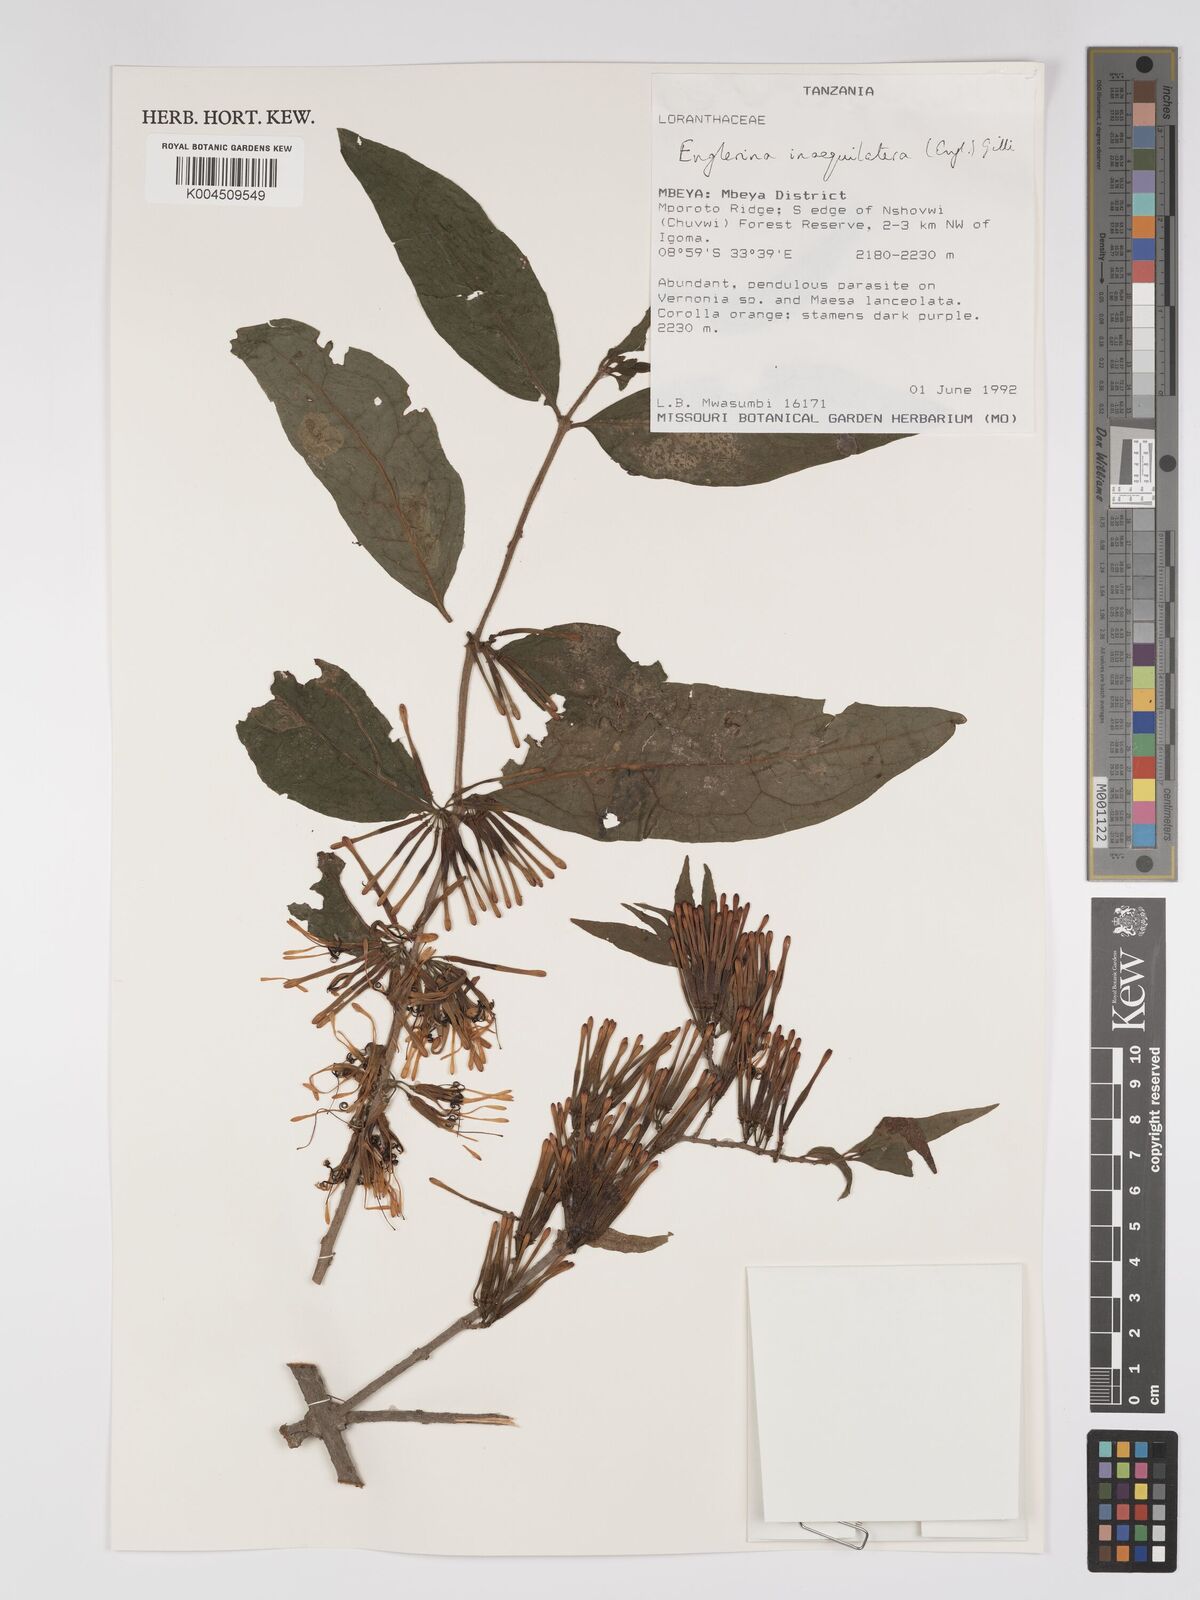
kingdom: Plantae
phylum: Tracheophyta
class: Magnoliopsida
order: Santalales
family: Loranthaceae
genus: Englerina
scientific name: Englerina inaequilatera
